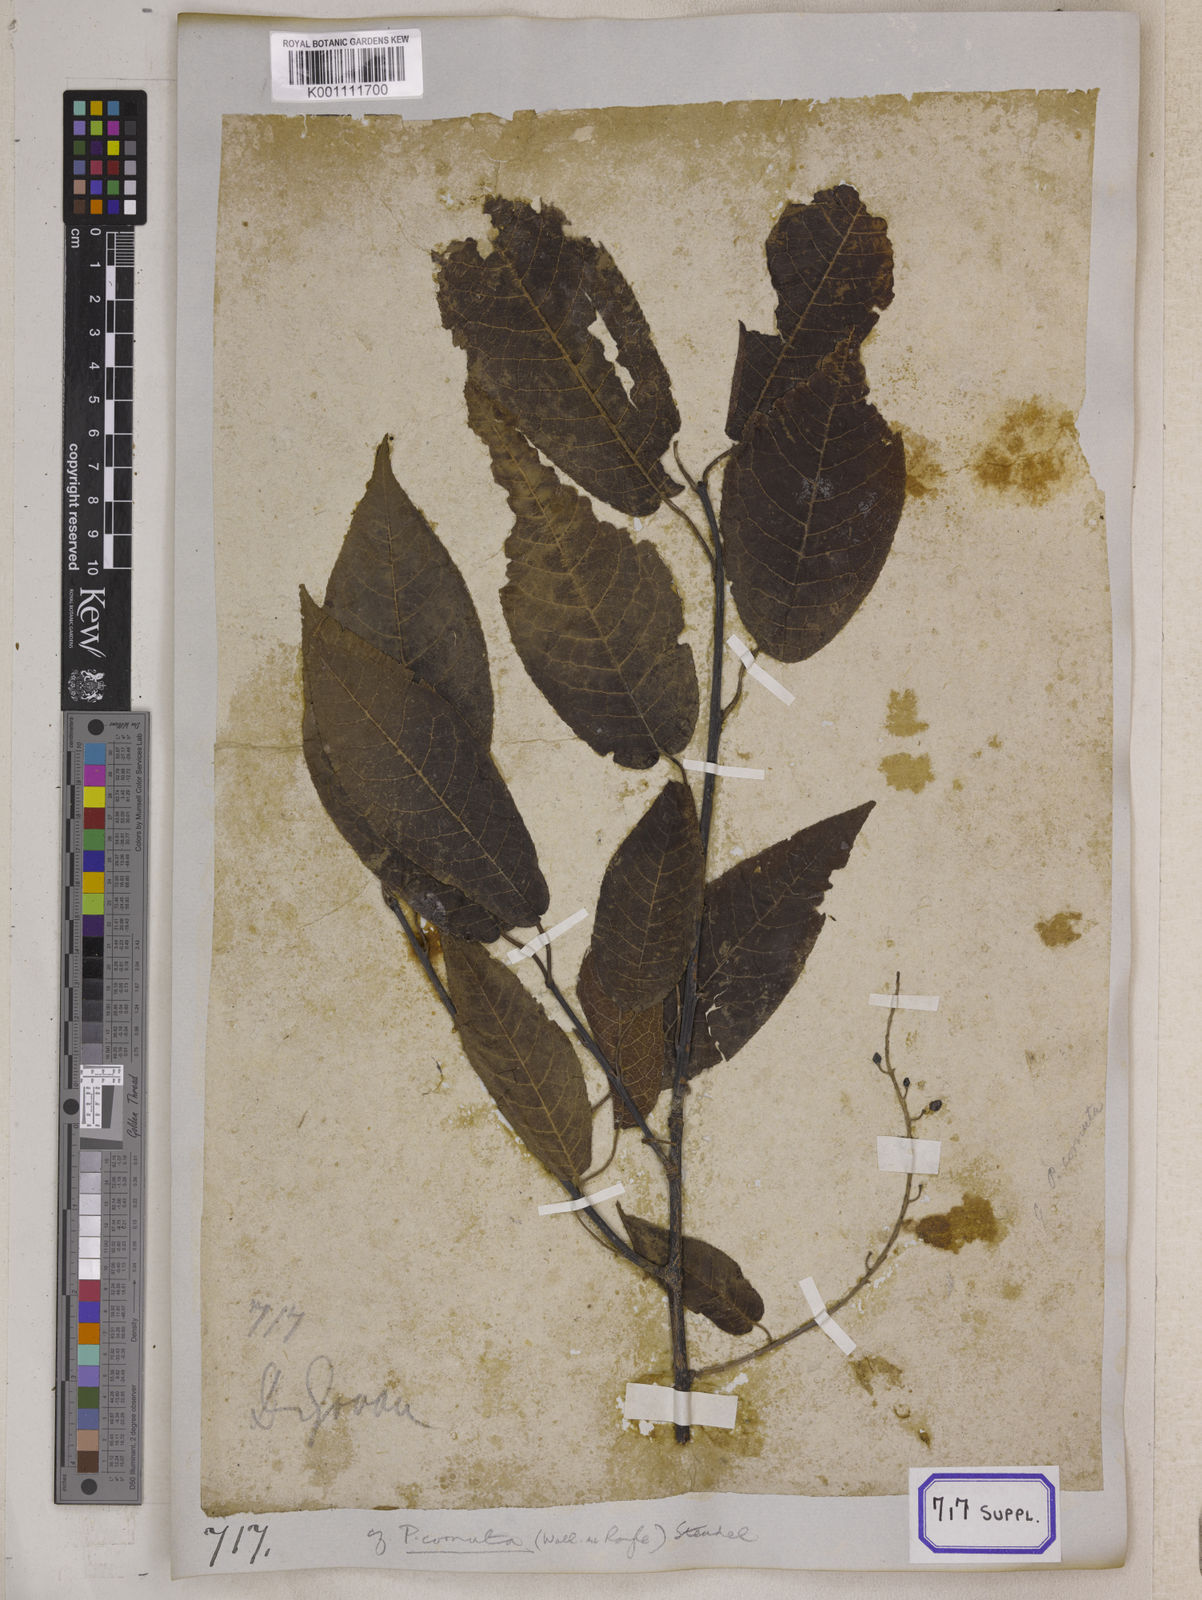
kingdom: Plantae
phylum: Tracheophyta
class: Magnoliopsida
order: Rosales
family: Rosaceae
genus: Prunus
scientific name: Prunus napaulensis
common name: Khasia cherry
